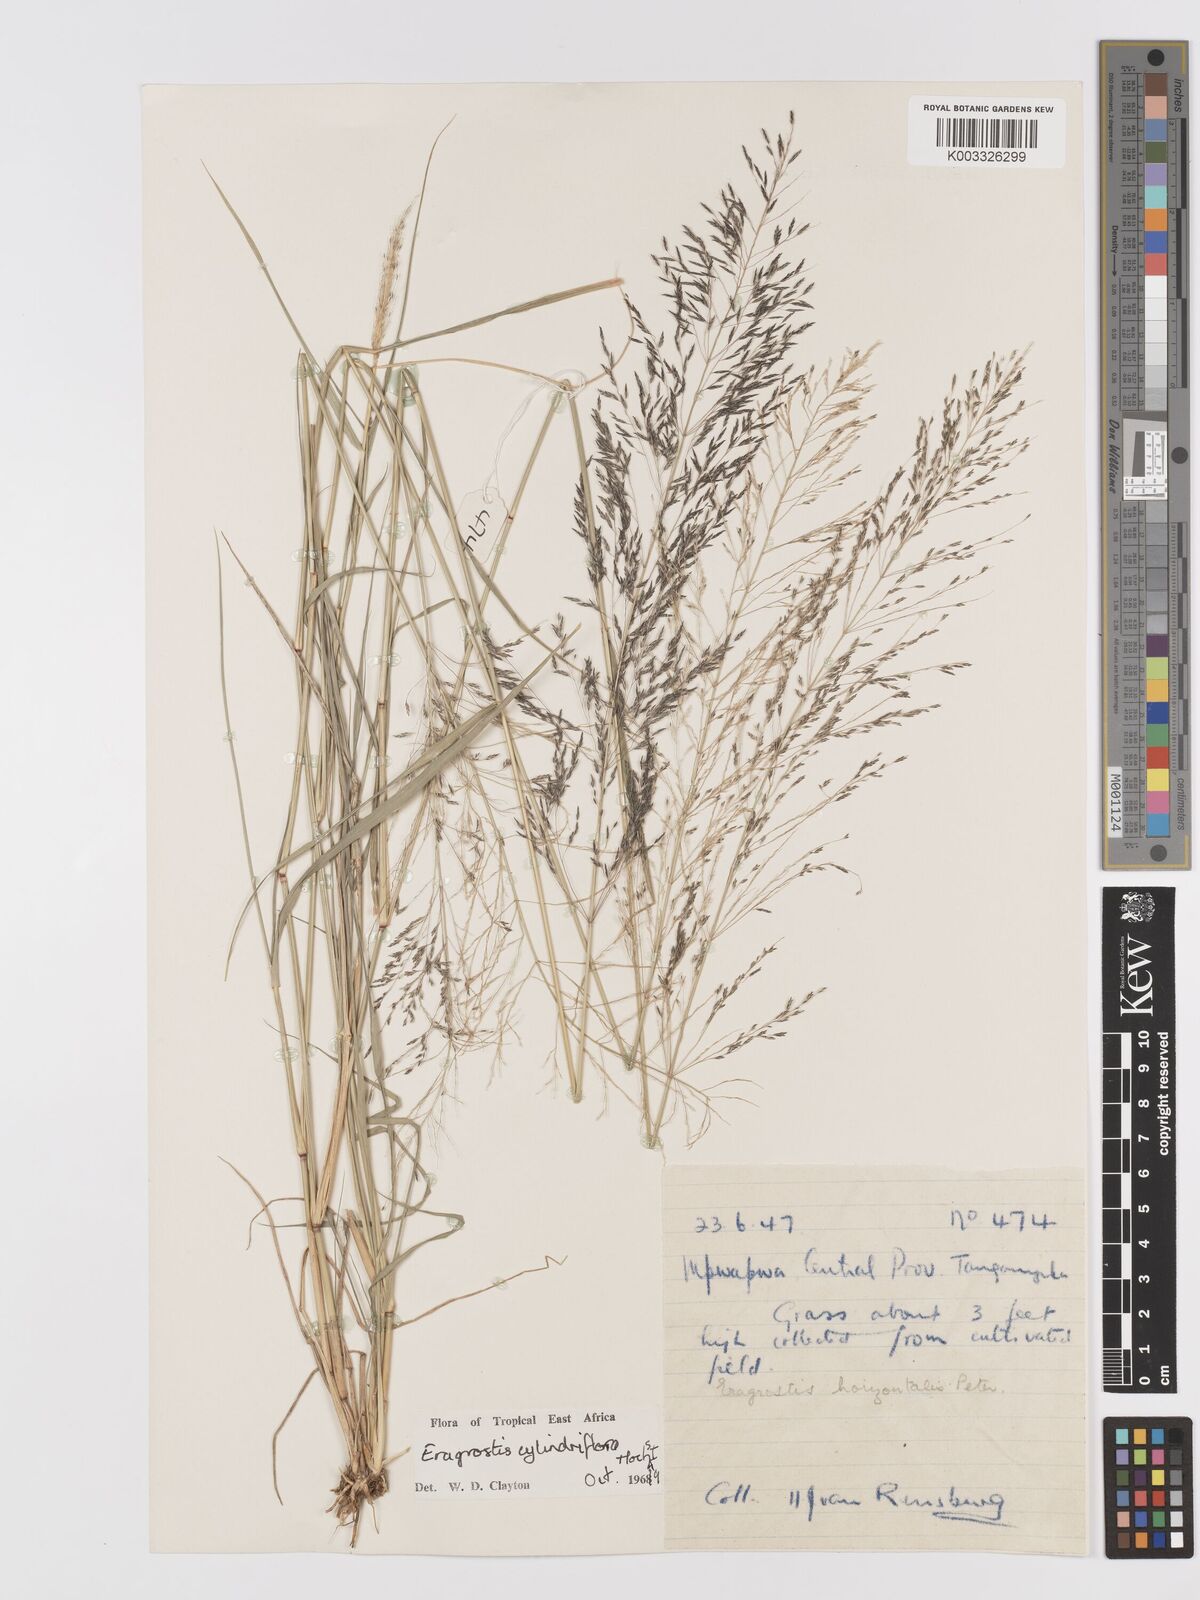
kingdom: Plantae
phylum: Tracheophyta
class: Liliopsida
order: Poales
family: Poaceae
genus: Eragrostis
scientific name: Eragrostis cylindriflora
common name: Cylinderflower lovegrass
